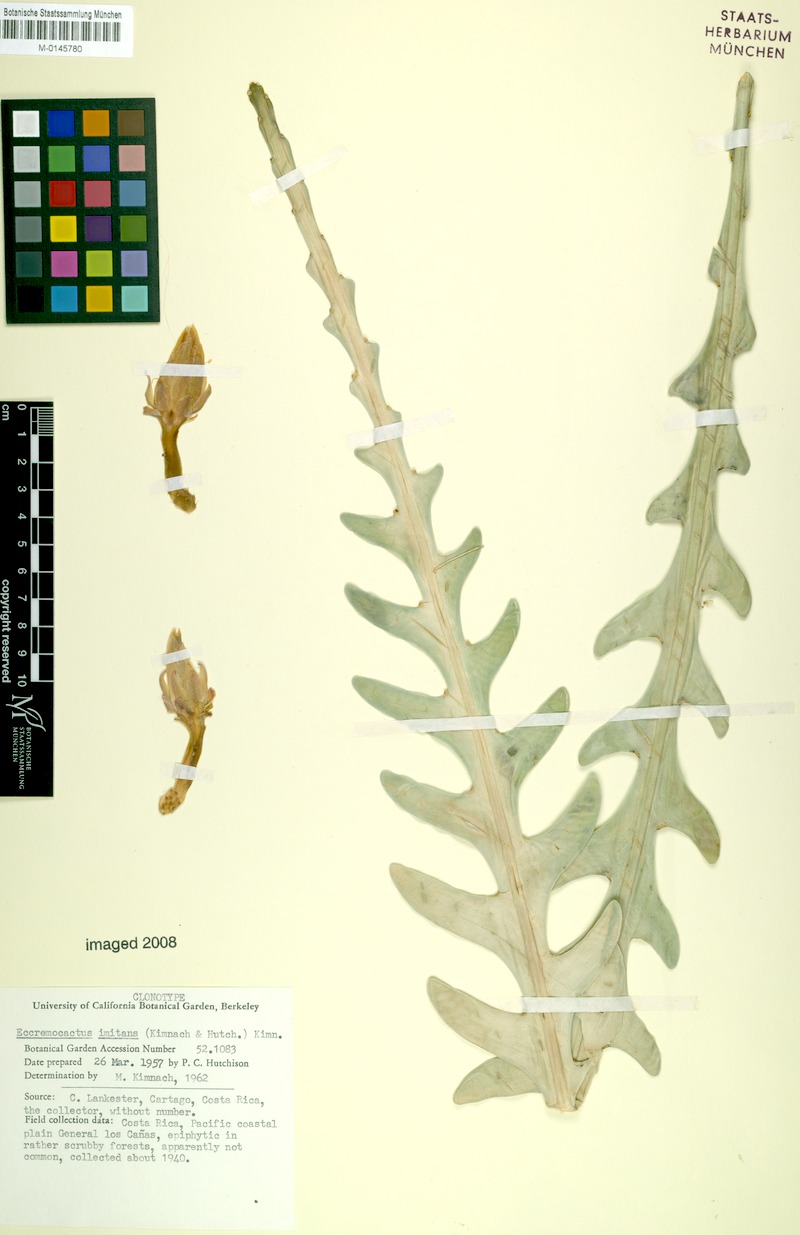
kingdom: Plantae
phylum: Tracheophyta
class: Magnoliopsida
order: Caryophyllales
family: Cactaceae
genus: Weberocereus
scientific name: Weberocereus imitans
